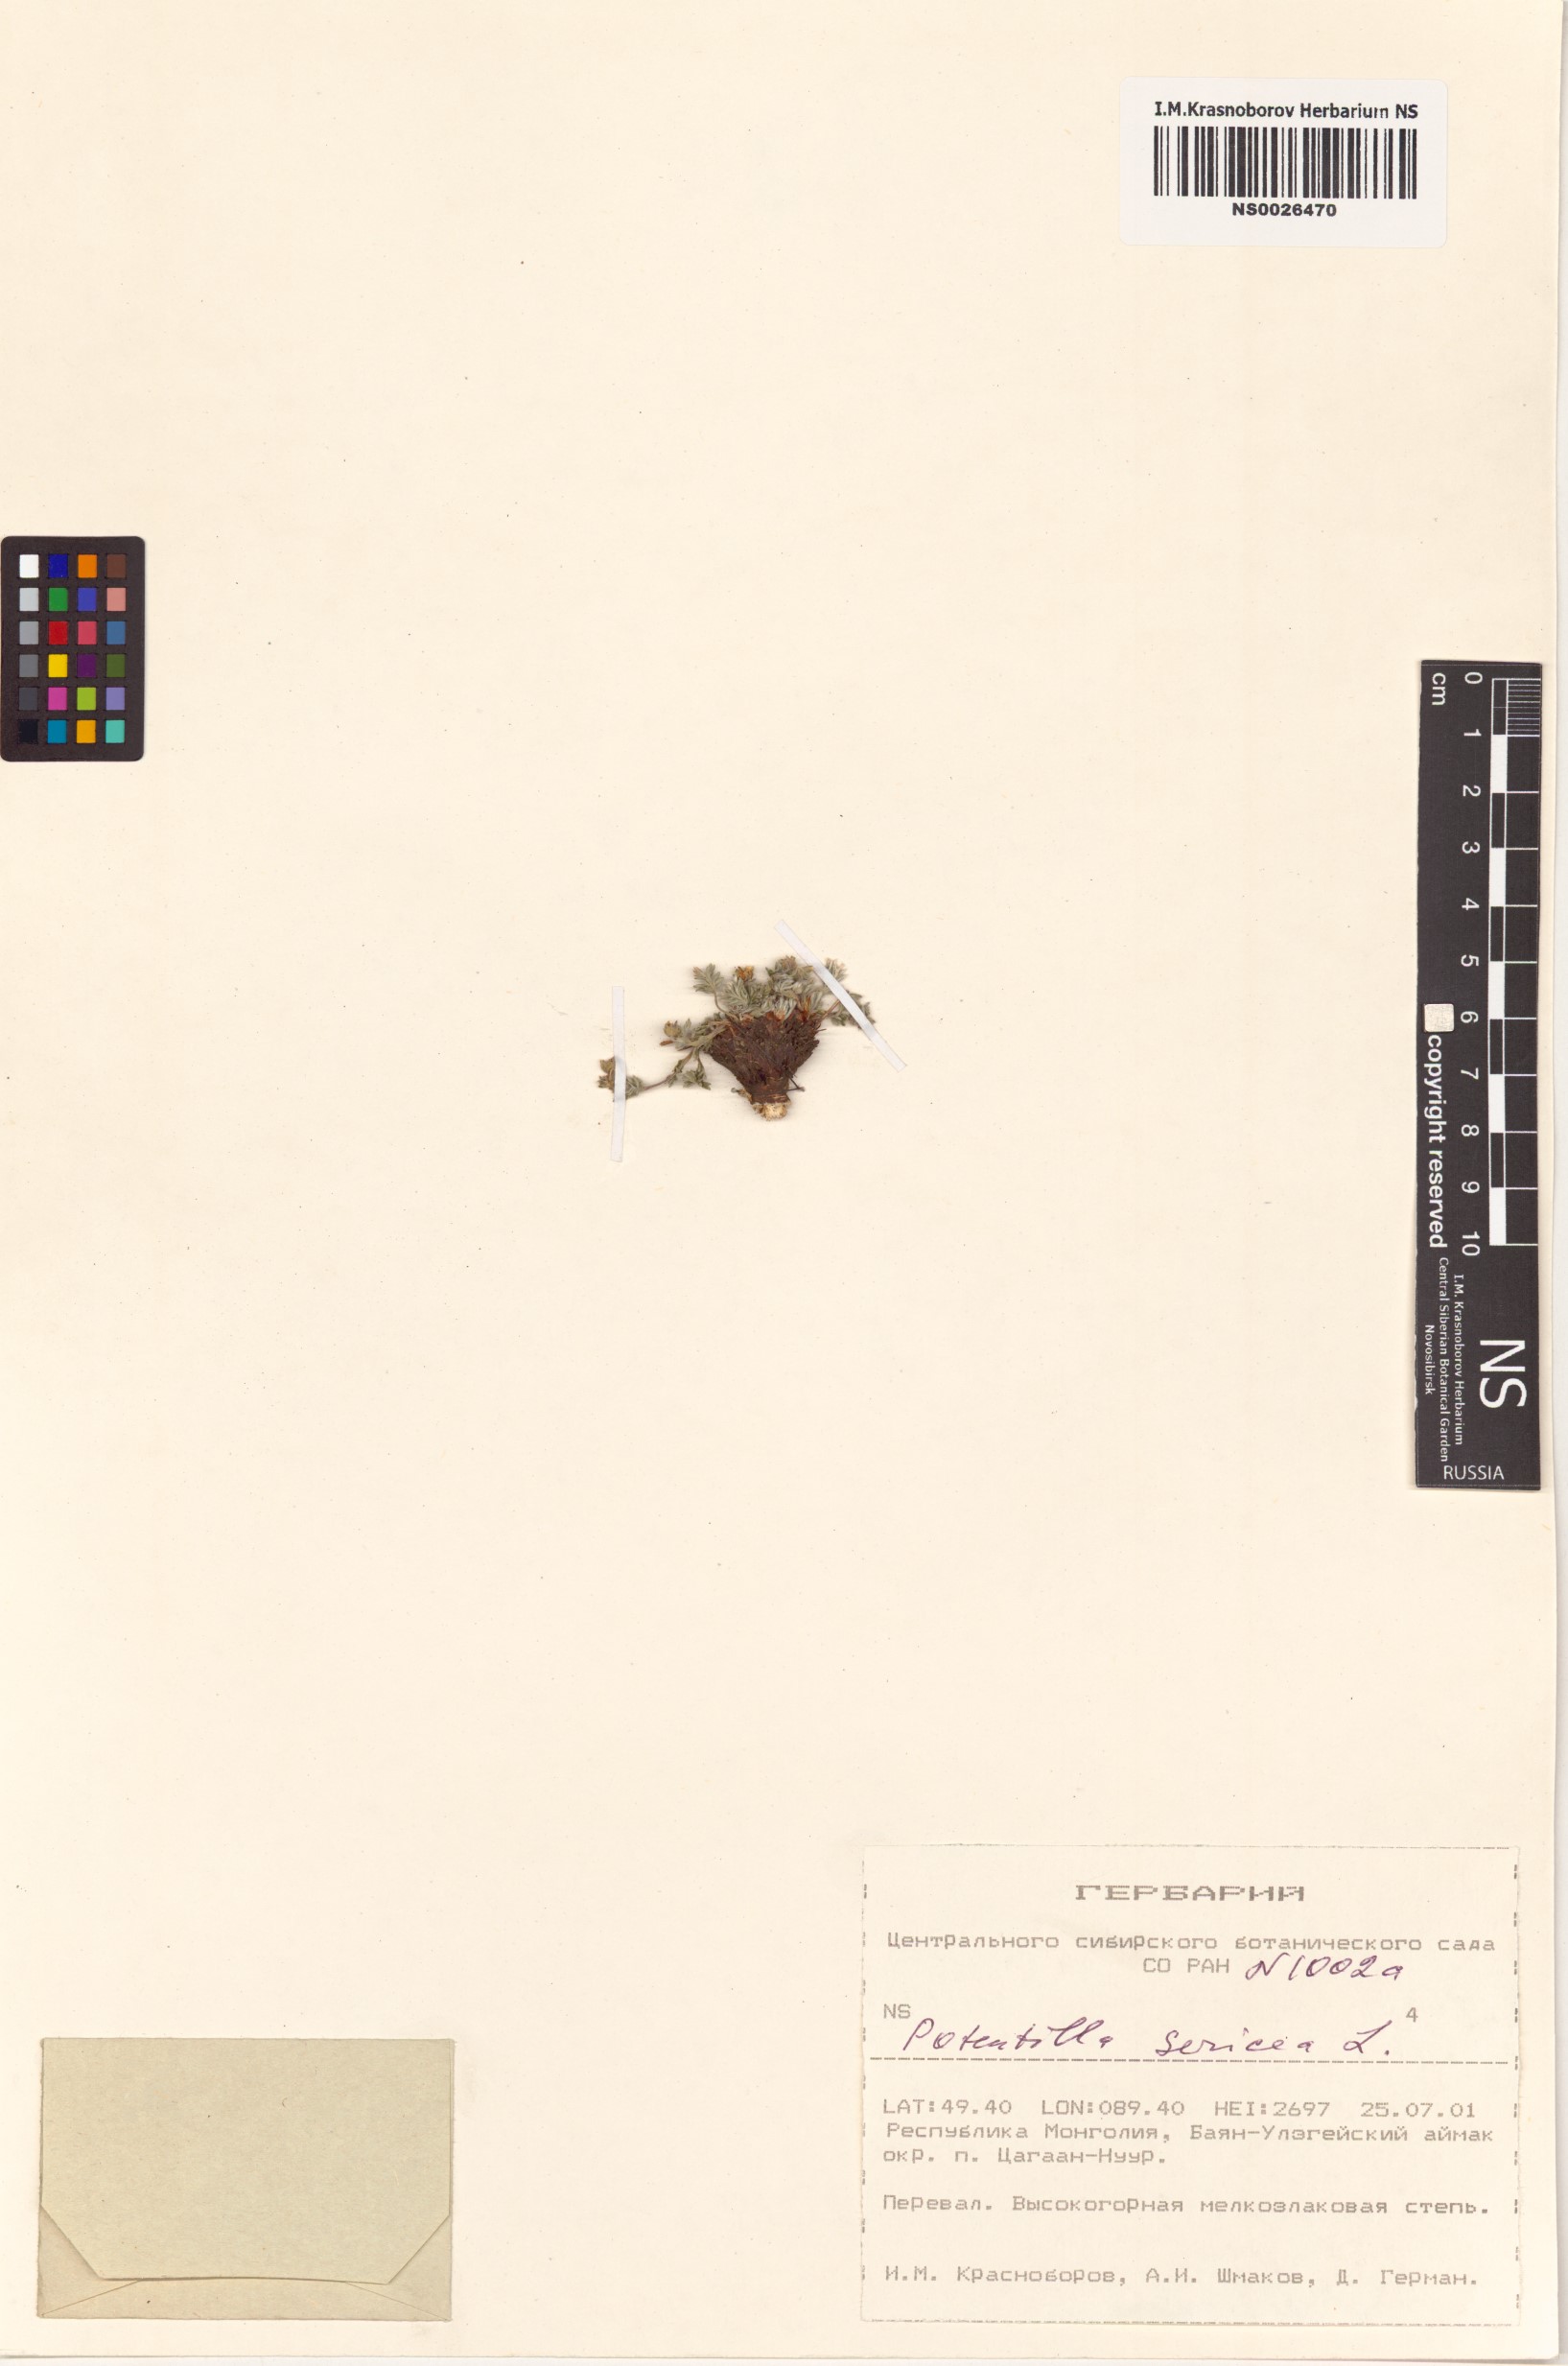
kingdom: Plantae
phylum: Tracheophyta
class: Magnoliopsida
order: Rosales
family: Rosaceae
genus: Potentilla
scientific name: Potentilla sericea
